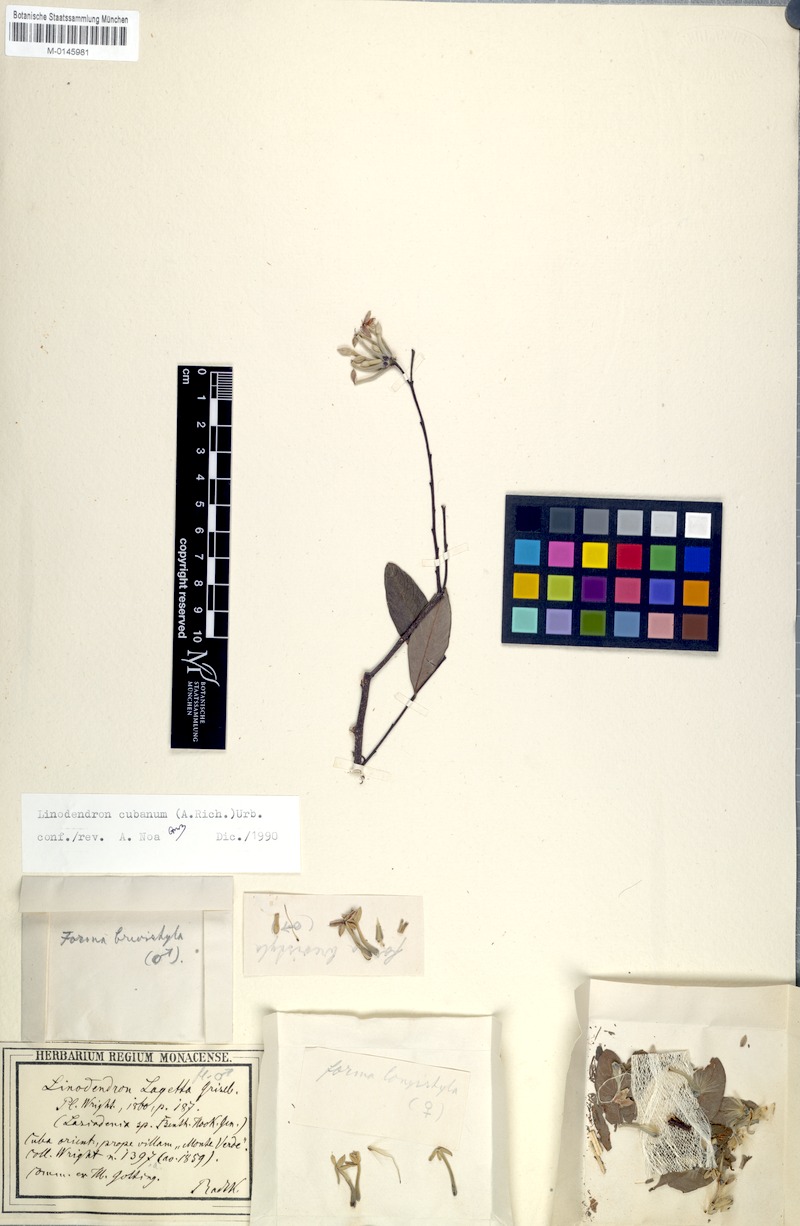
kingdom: Plantae
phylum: Tracheophyta
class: Magnoliopsida
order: Malvales
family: Thymelaeaceae
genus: Linodendron
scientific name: Linodendron cubanum
